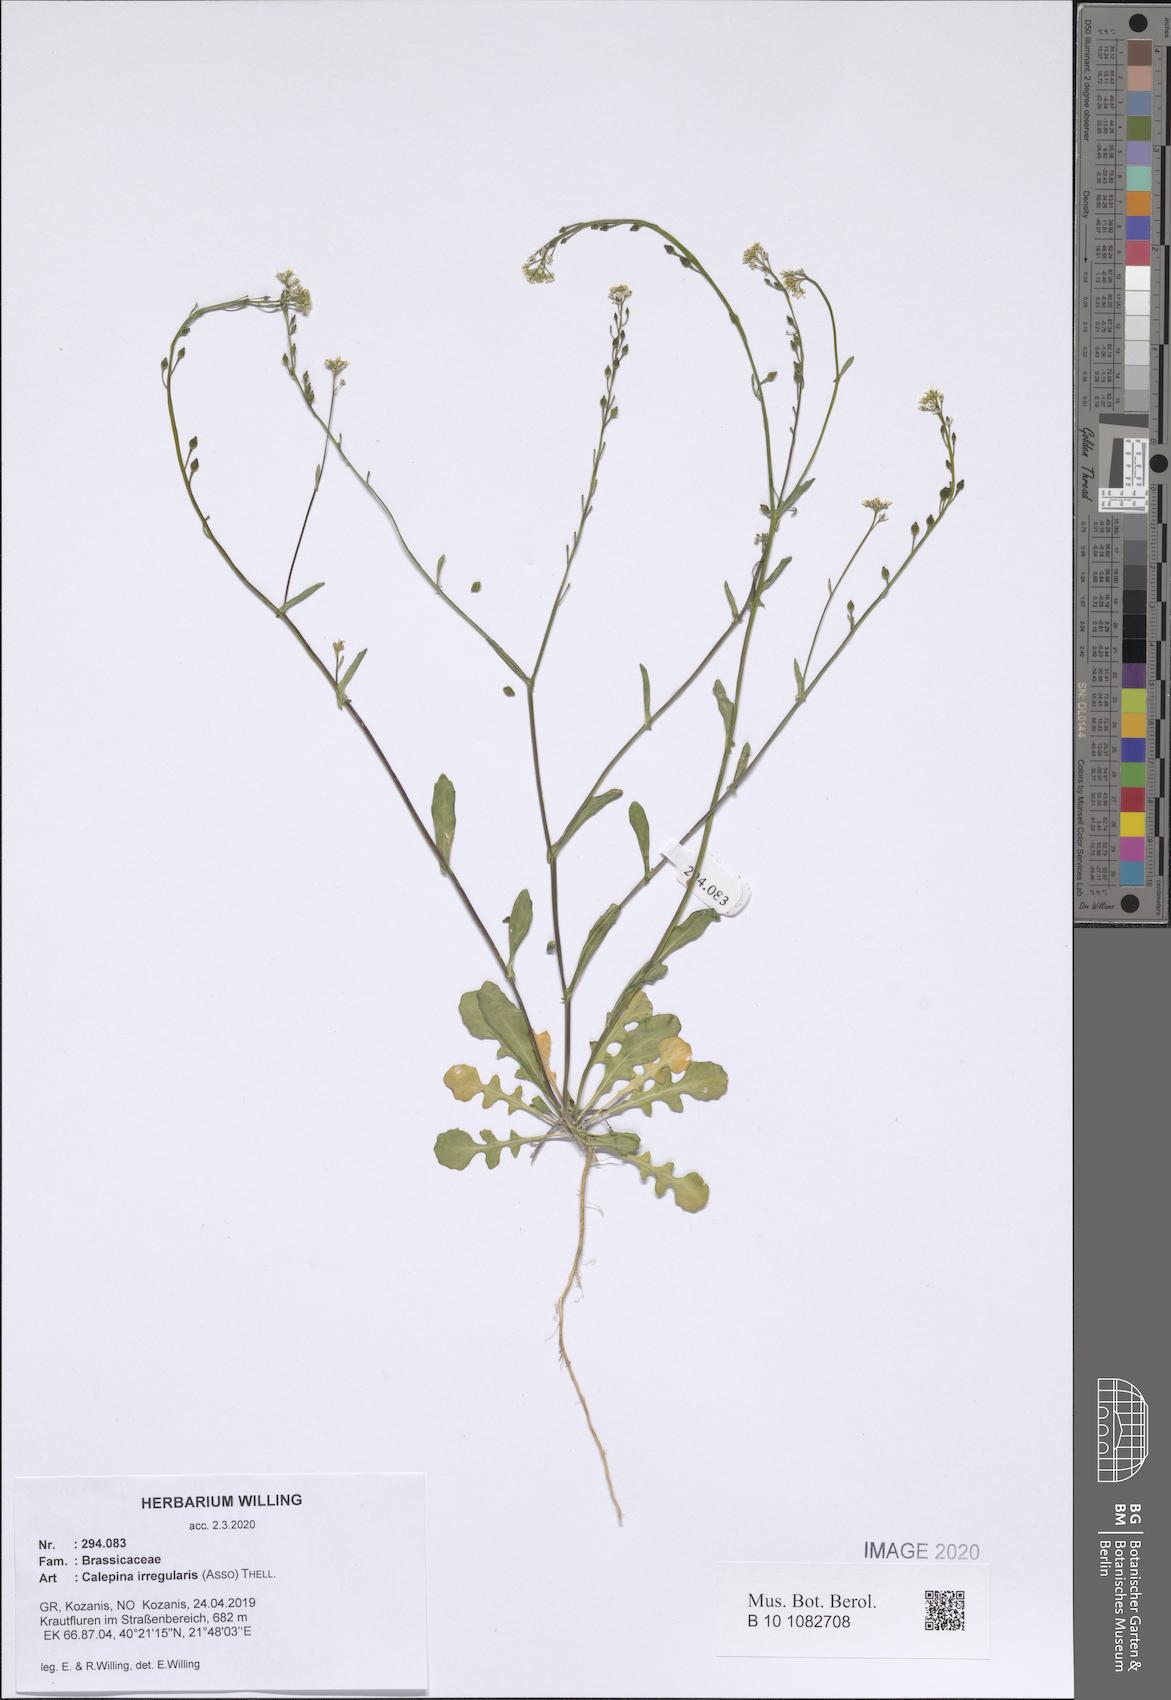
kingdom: Plantae
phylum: Tracheophyta
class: Magnoliopsida
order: Brassicales
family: Brassicaceae
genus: Calepina
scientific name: Calepina irregularis
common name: White ballmustard
